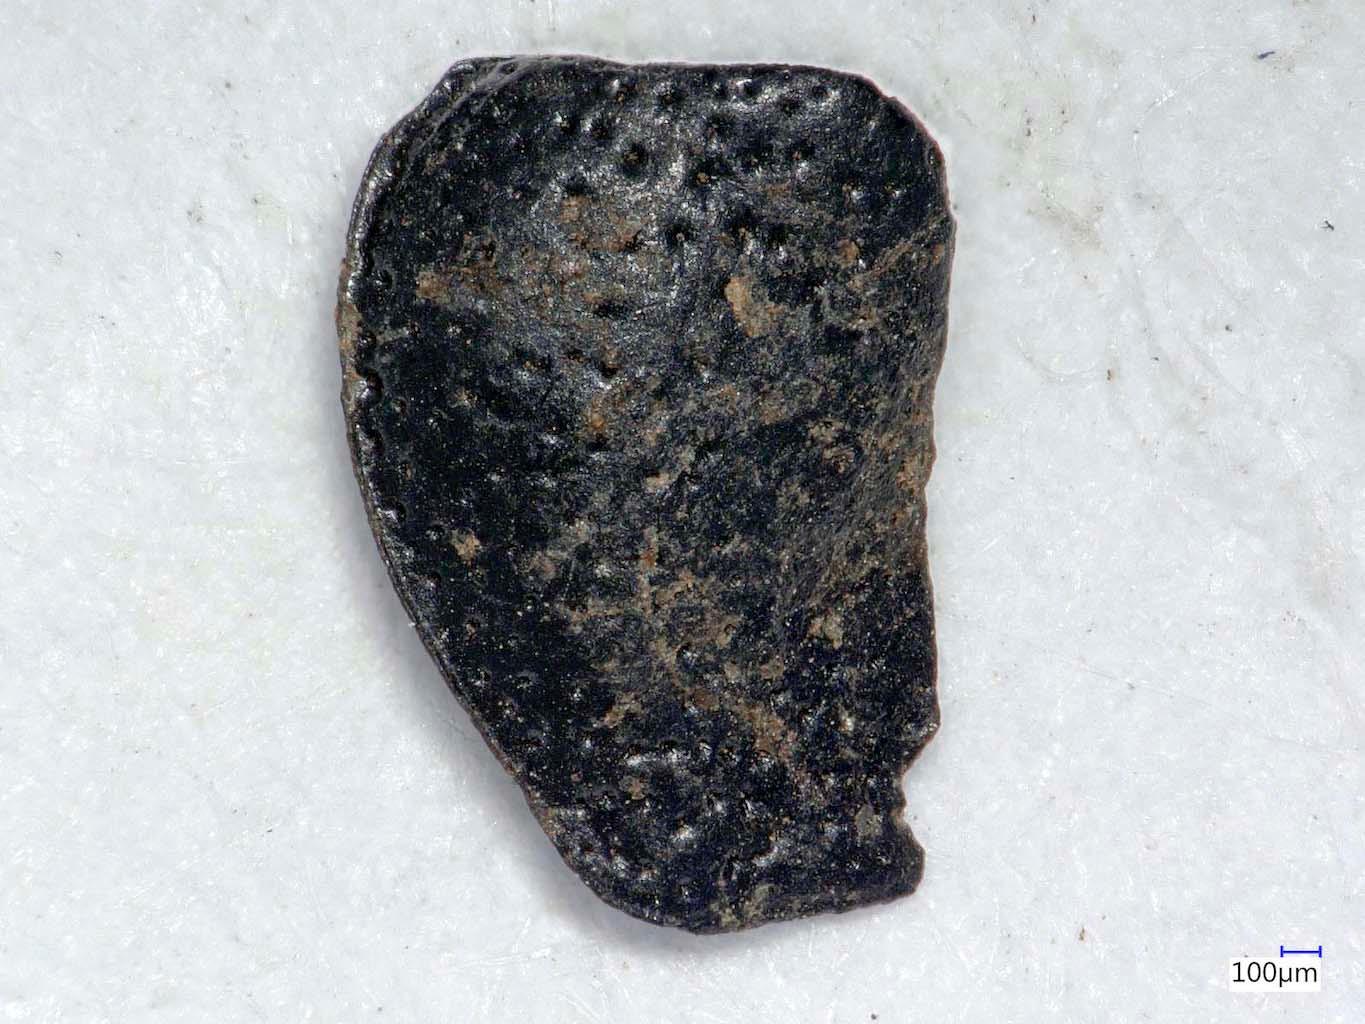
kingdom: Animalia
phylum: Arthropoda
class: Insecta
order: Coleoptera
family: Carabidae
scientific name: Carabidae
